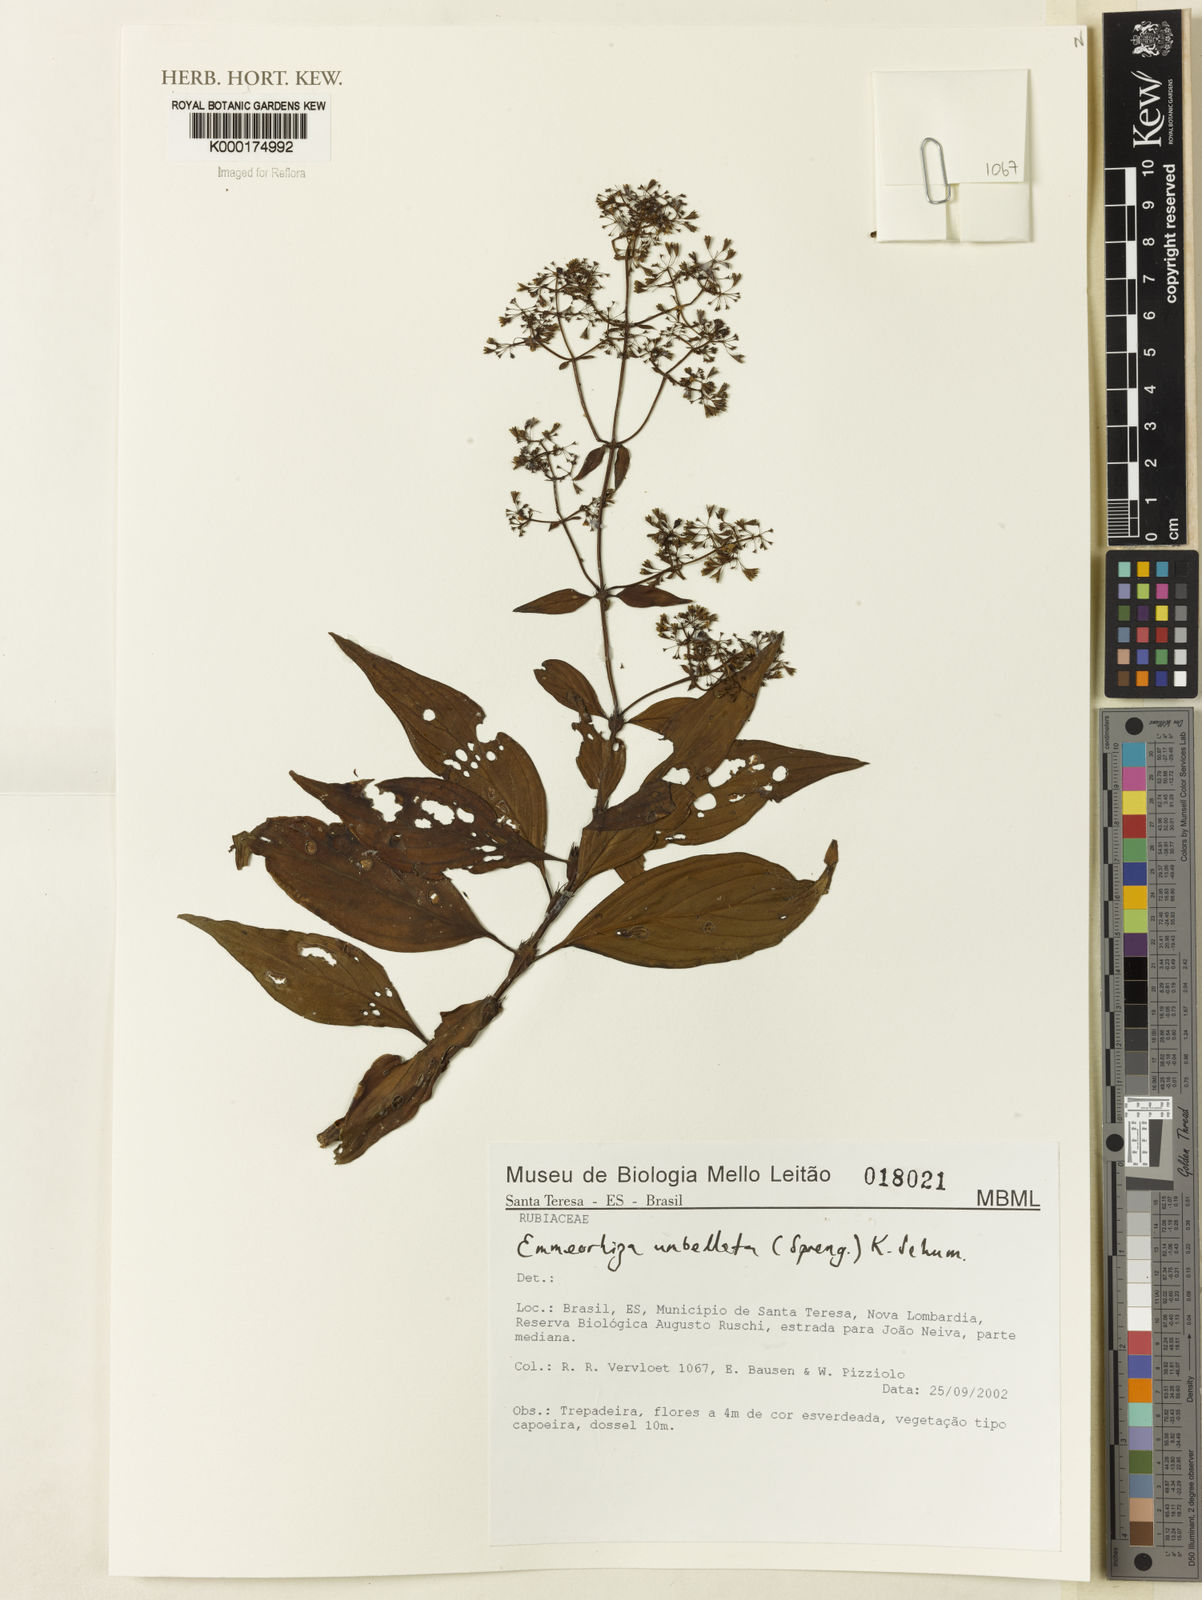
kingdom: Plantae
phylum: Tracheophyta
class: Magnoliopsida
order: Gentianales
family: Rubiaceae
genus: Emmeorhiza
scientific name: Emmeorhiza umbellata
